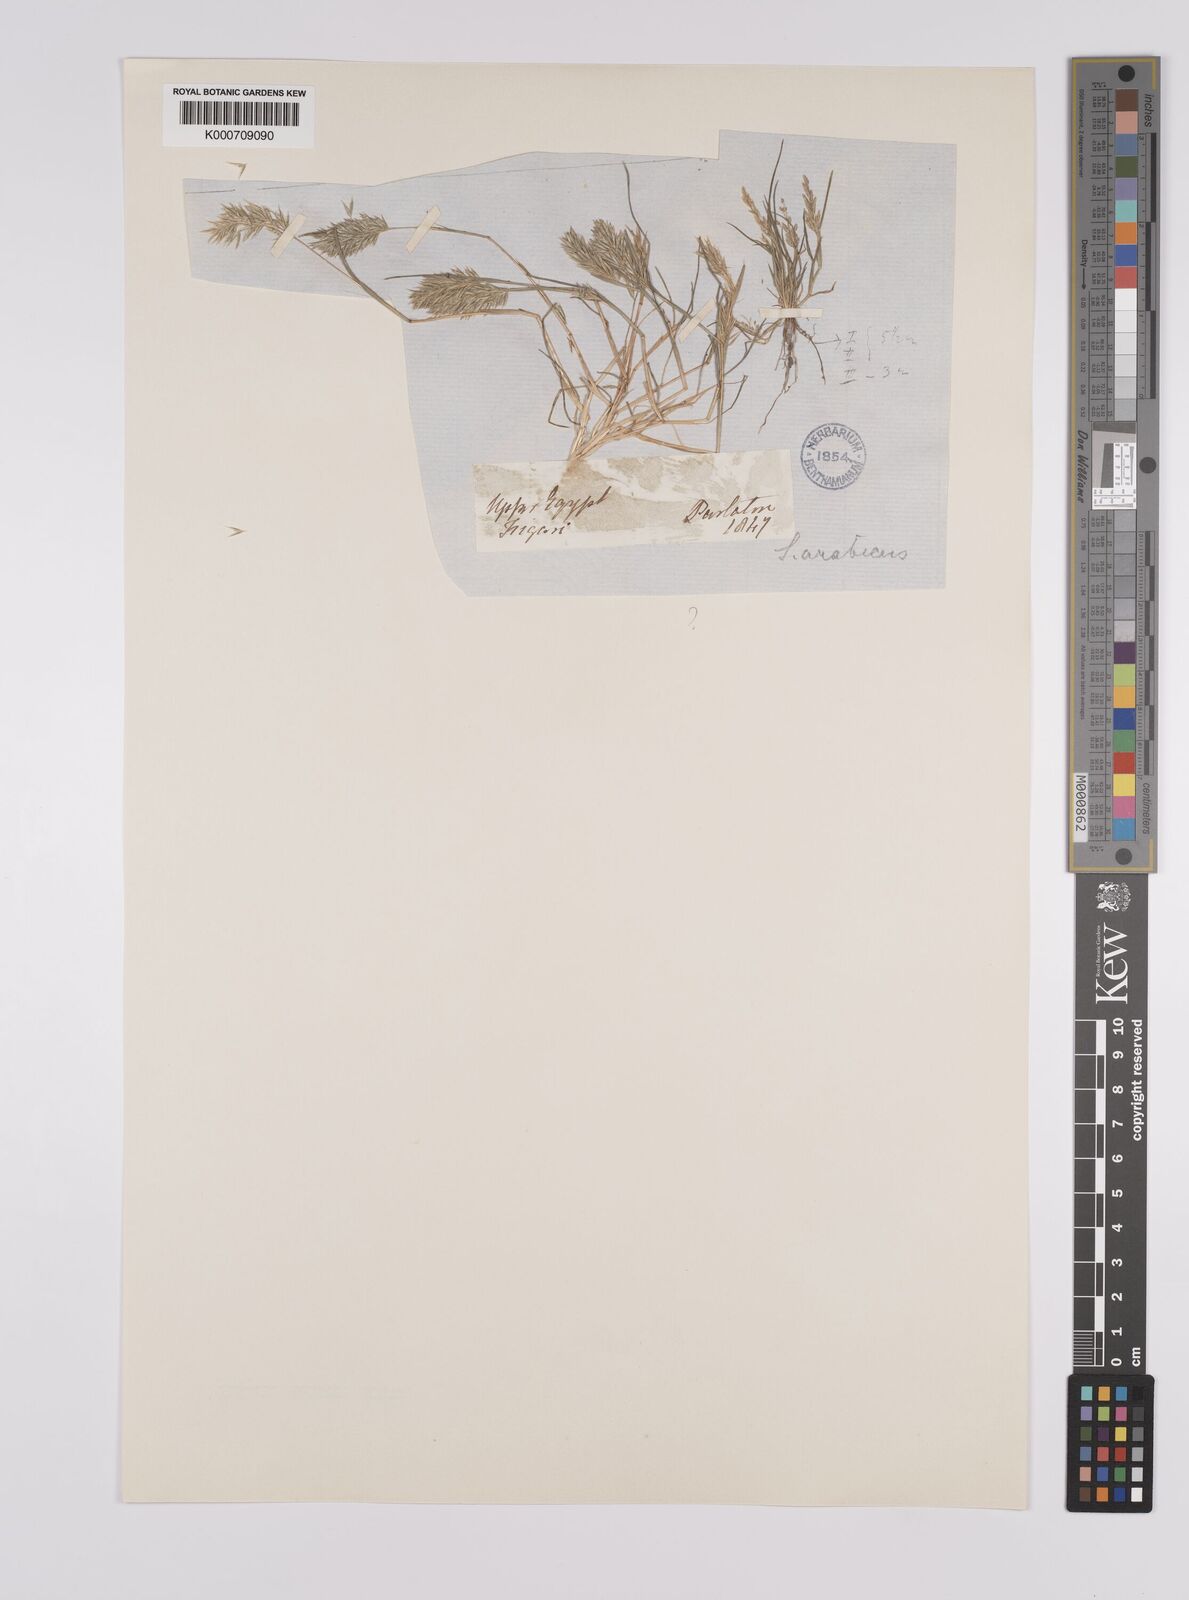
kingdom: Plantae
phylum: Tracheophyta
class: Liliopsida
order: Poales
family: Poaceae
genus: Schismus
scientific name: Schismus arabicus
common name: Arabian schismus
